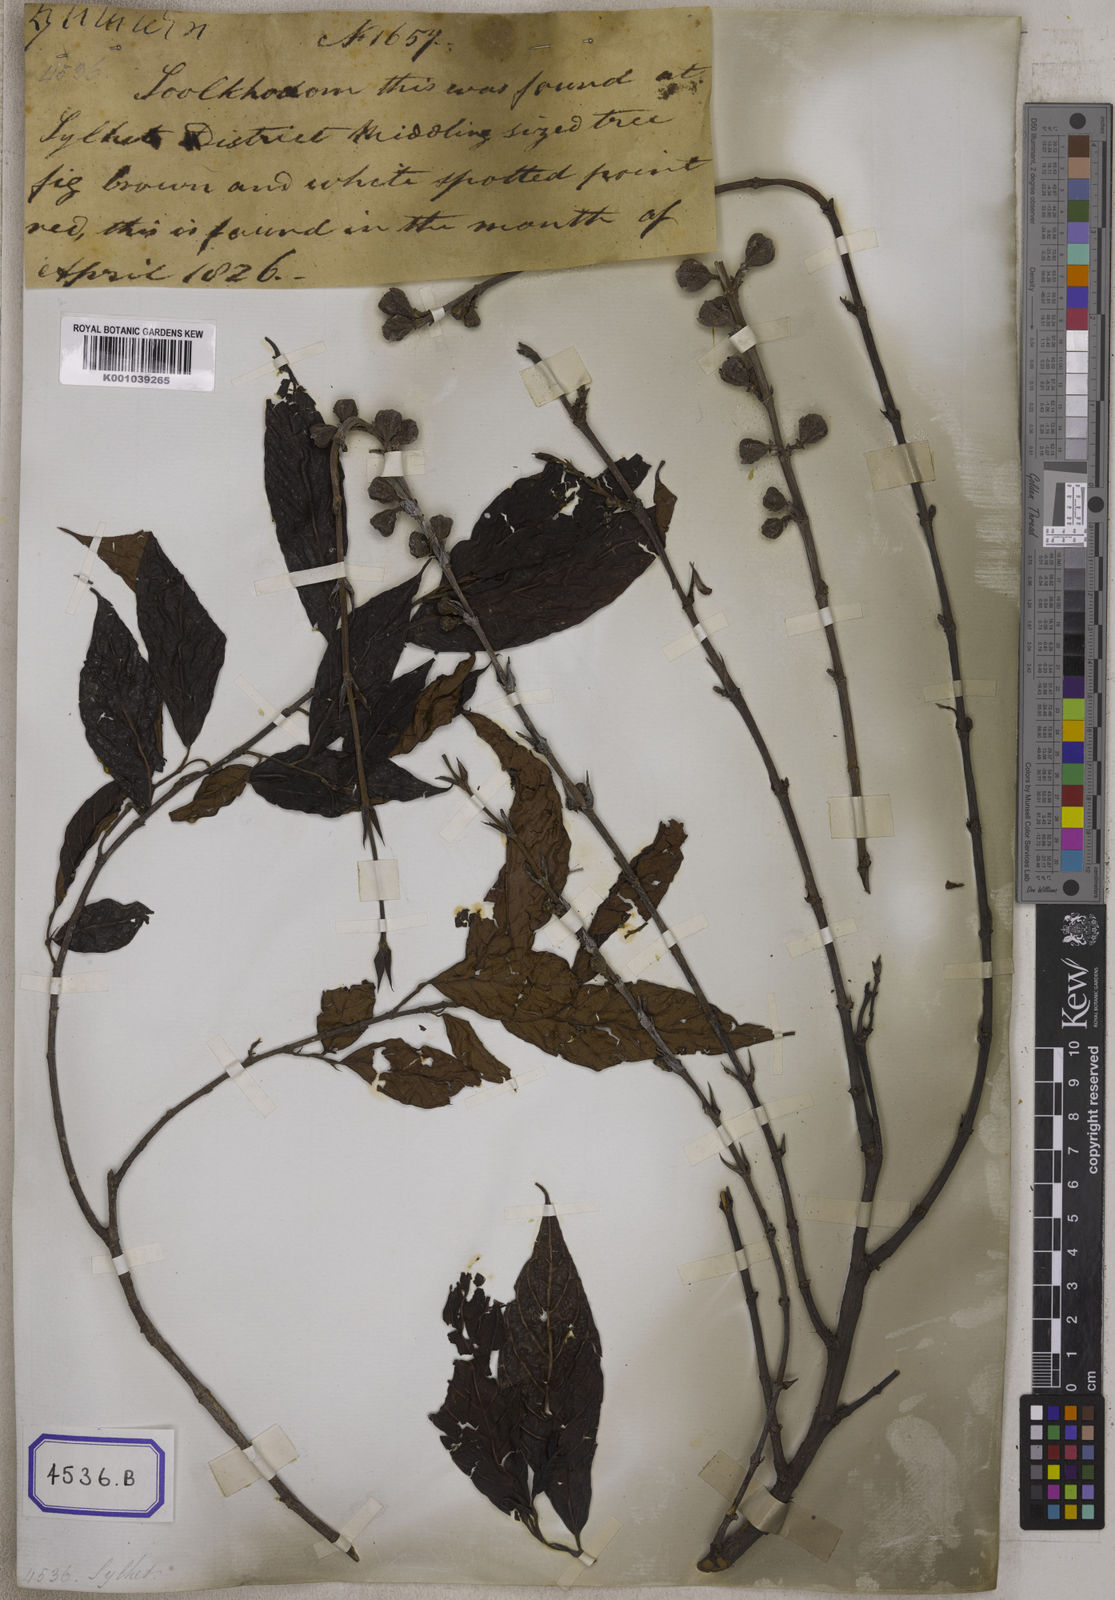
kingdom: Plantae
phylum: Tracheophyta
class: Magnoliopsida
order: Rosales
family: Moraceae
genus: Ficus
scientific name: Ficus
